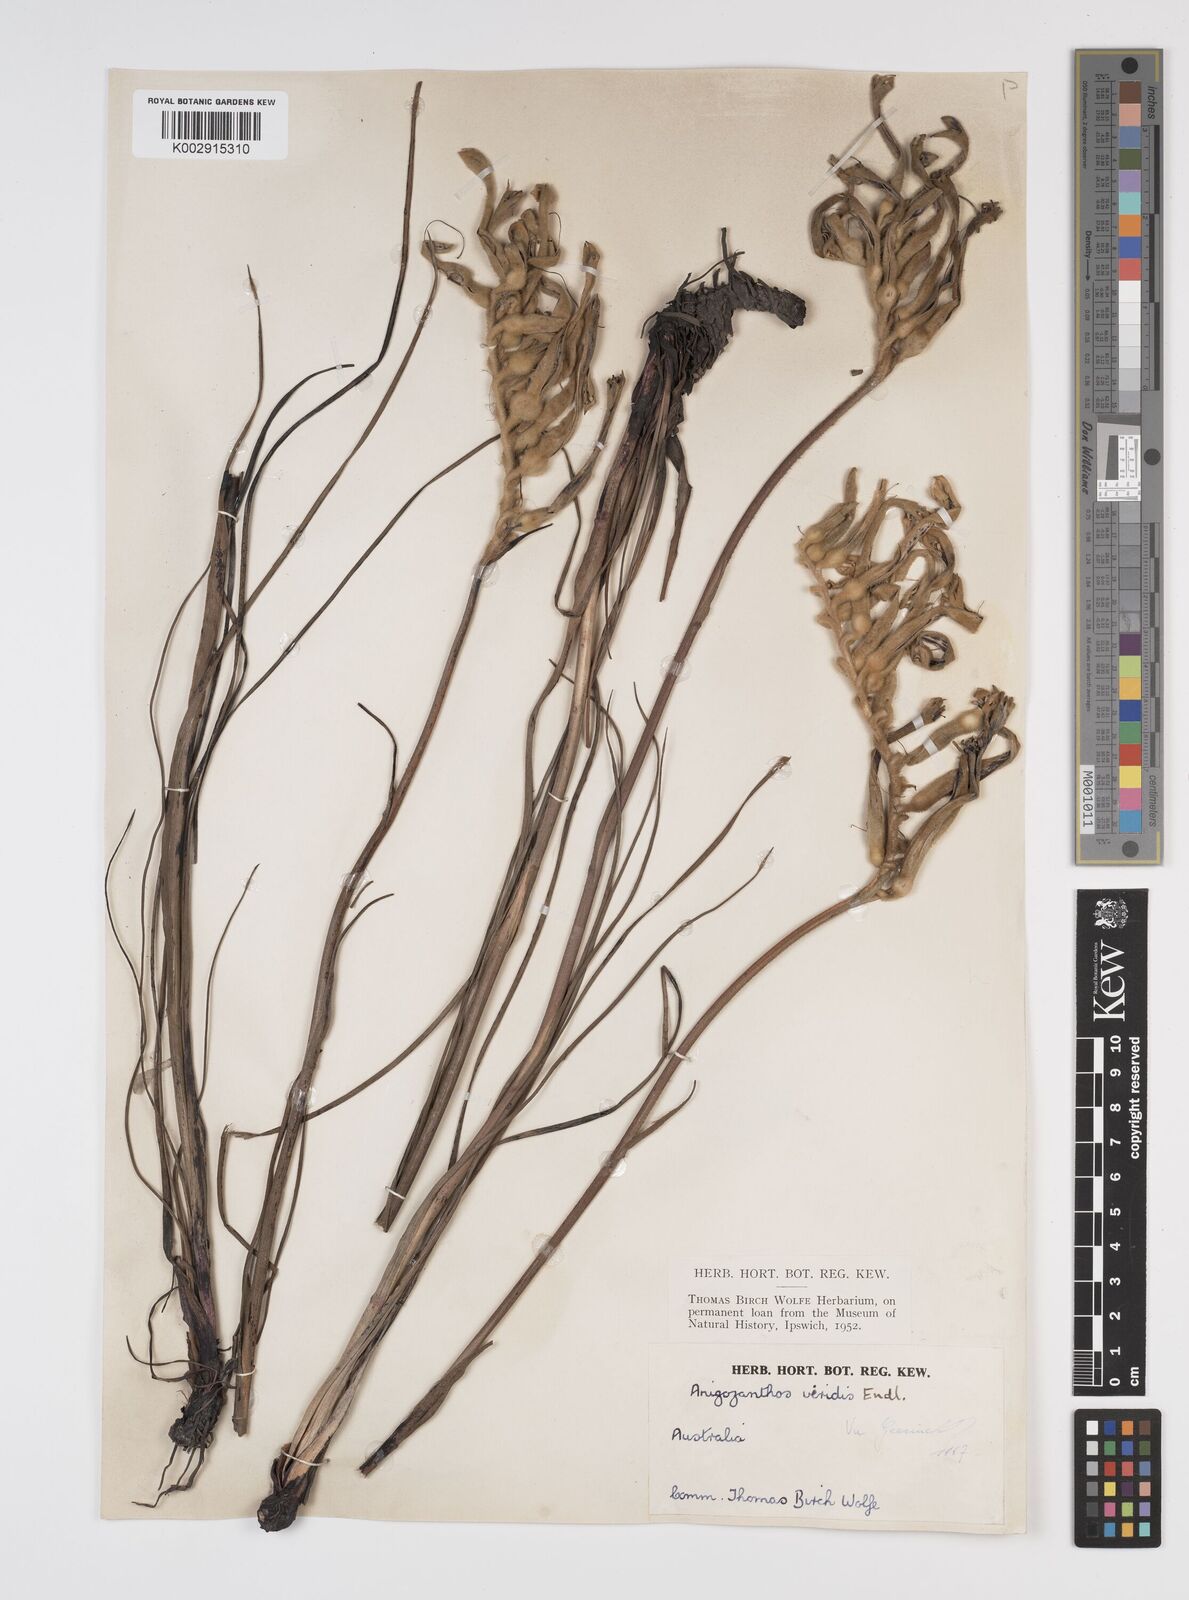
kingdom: Plantae
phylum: Tracheophyta
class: Liliopsida
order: Commelinales
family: Haemodoraceae
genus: Anigozanthos
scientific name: Anigozanthos viridis
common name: Green kangaroo-paw
